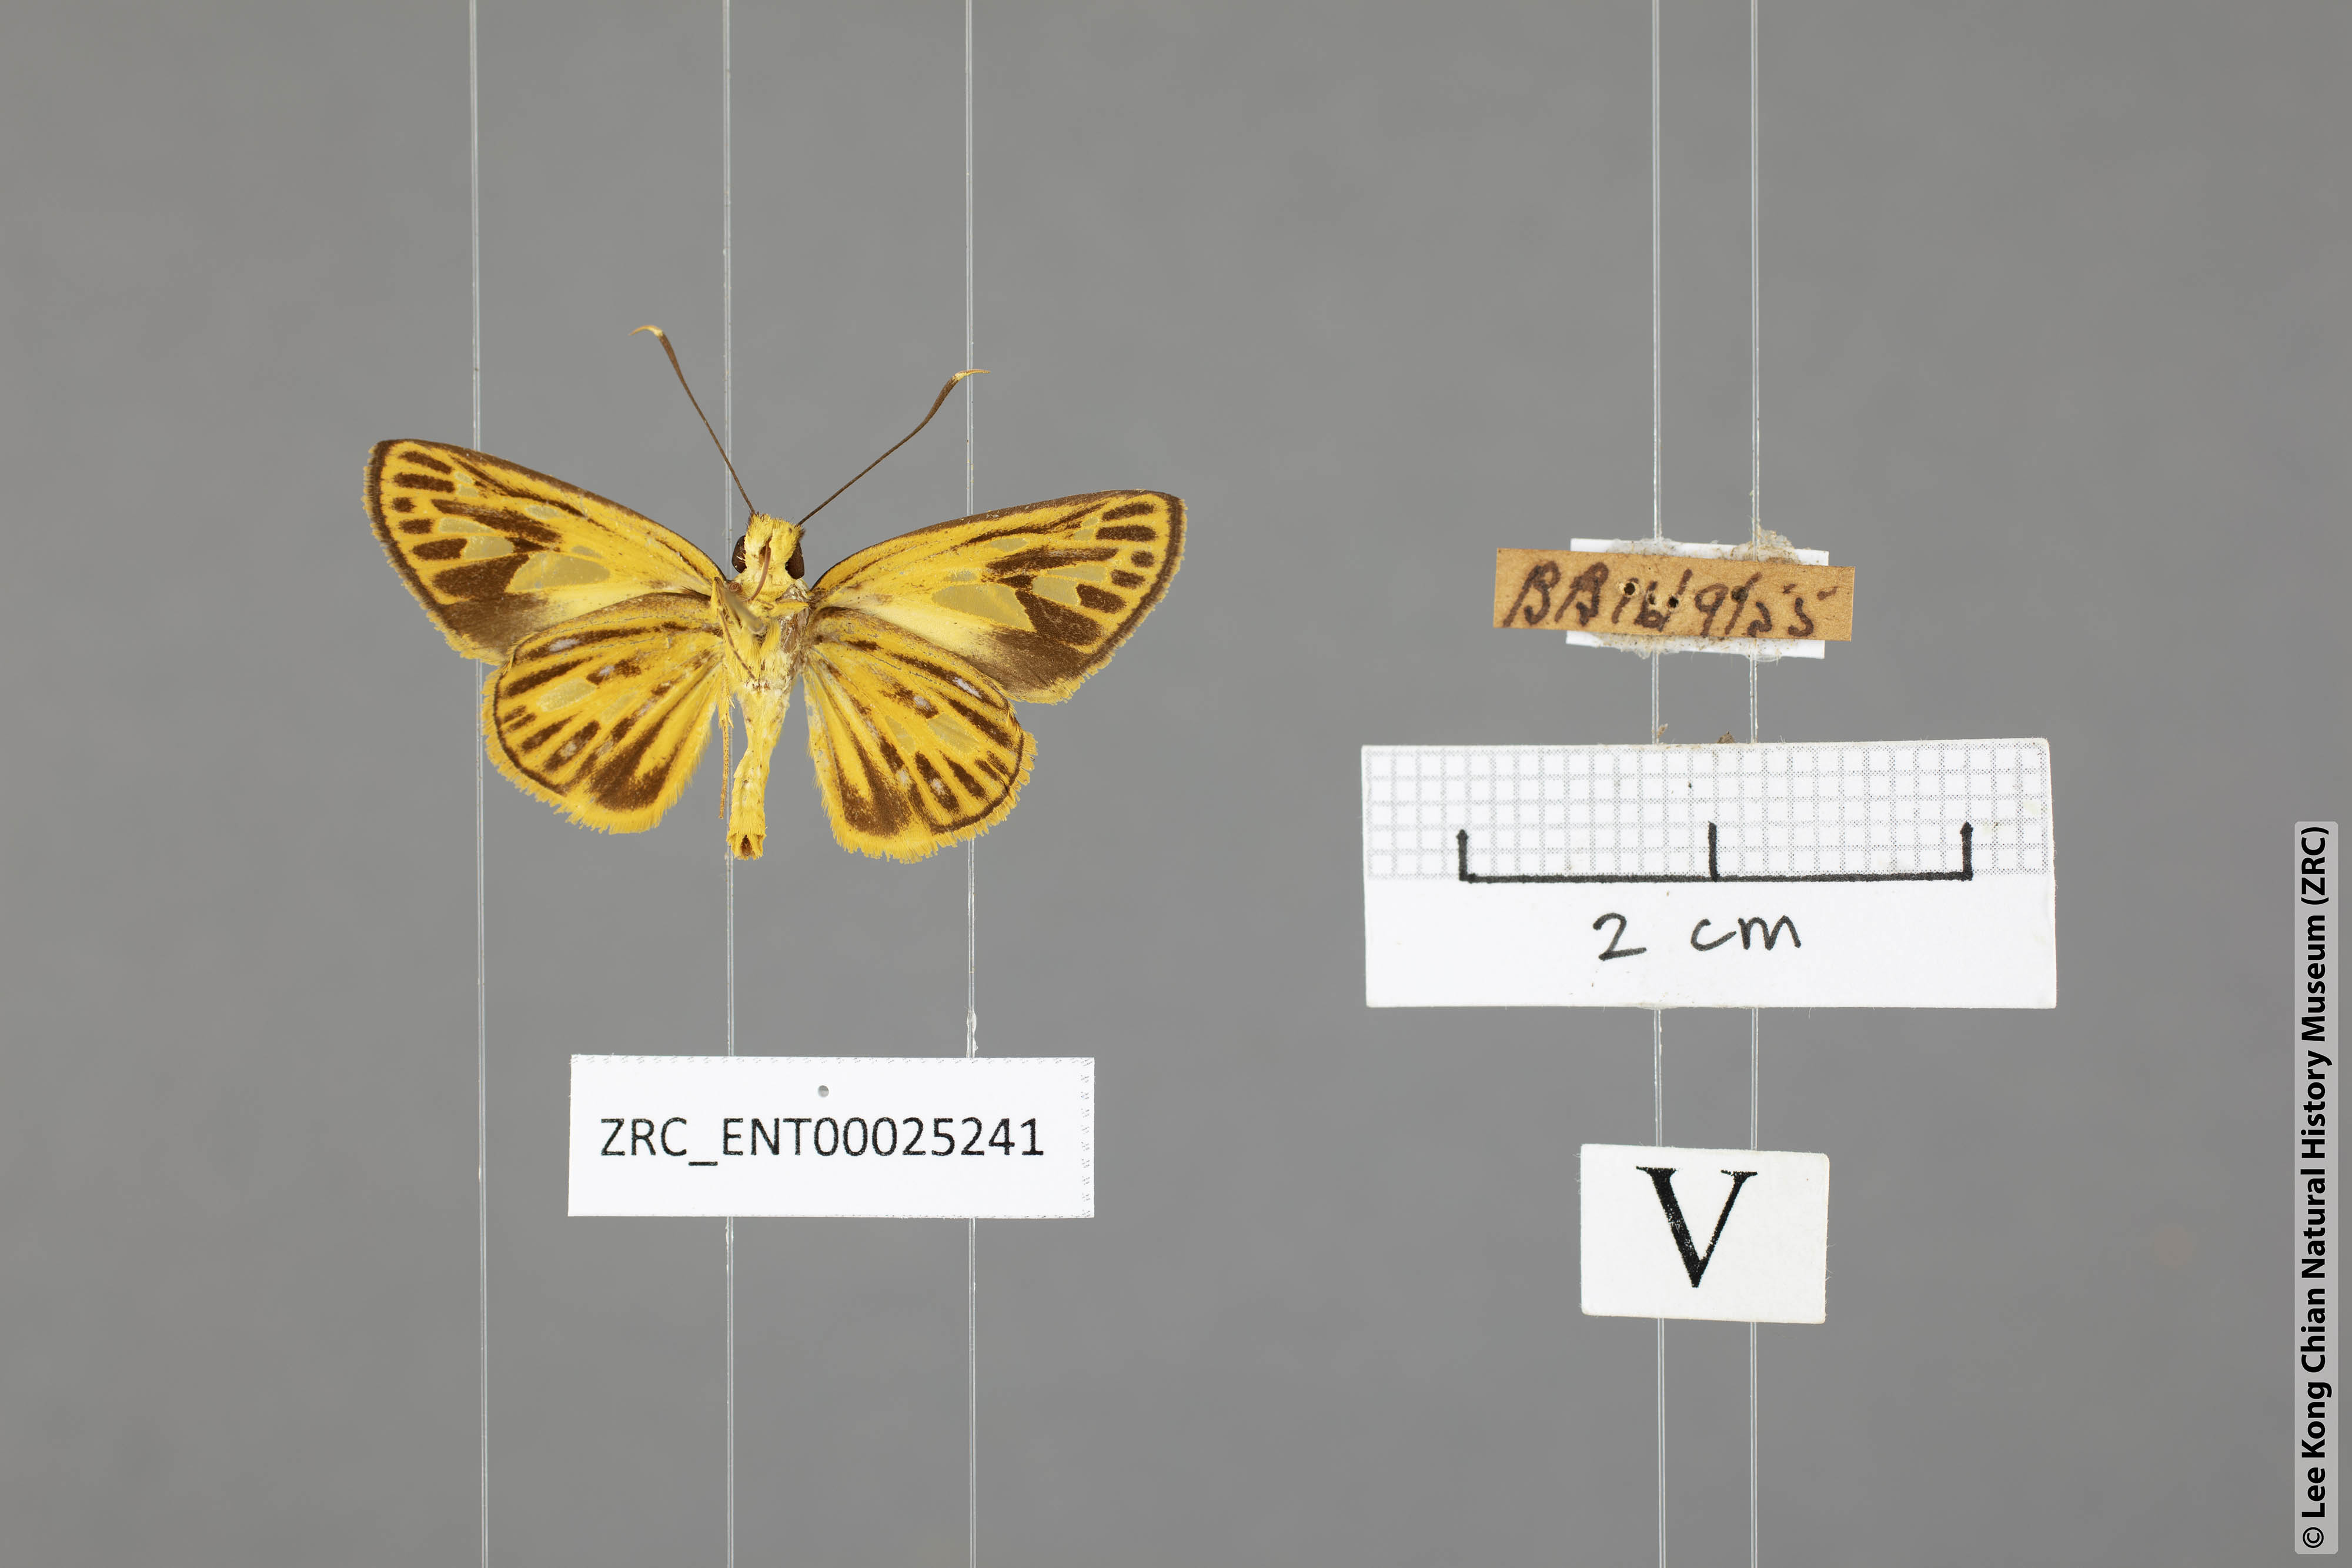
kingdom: Animalia
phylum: Arthropoda
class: Insecta
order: Lepidoptera
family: Hesperiidae
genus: Pyroneura
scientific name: Pyroneura helena
